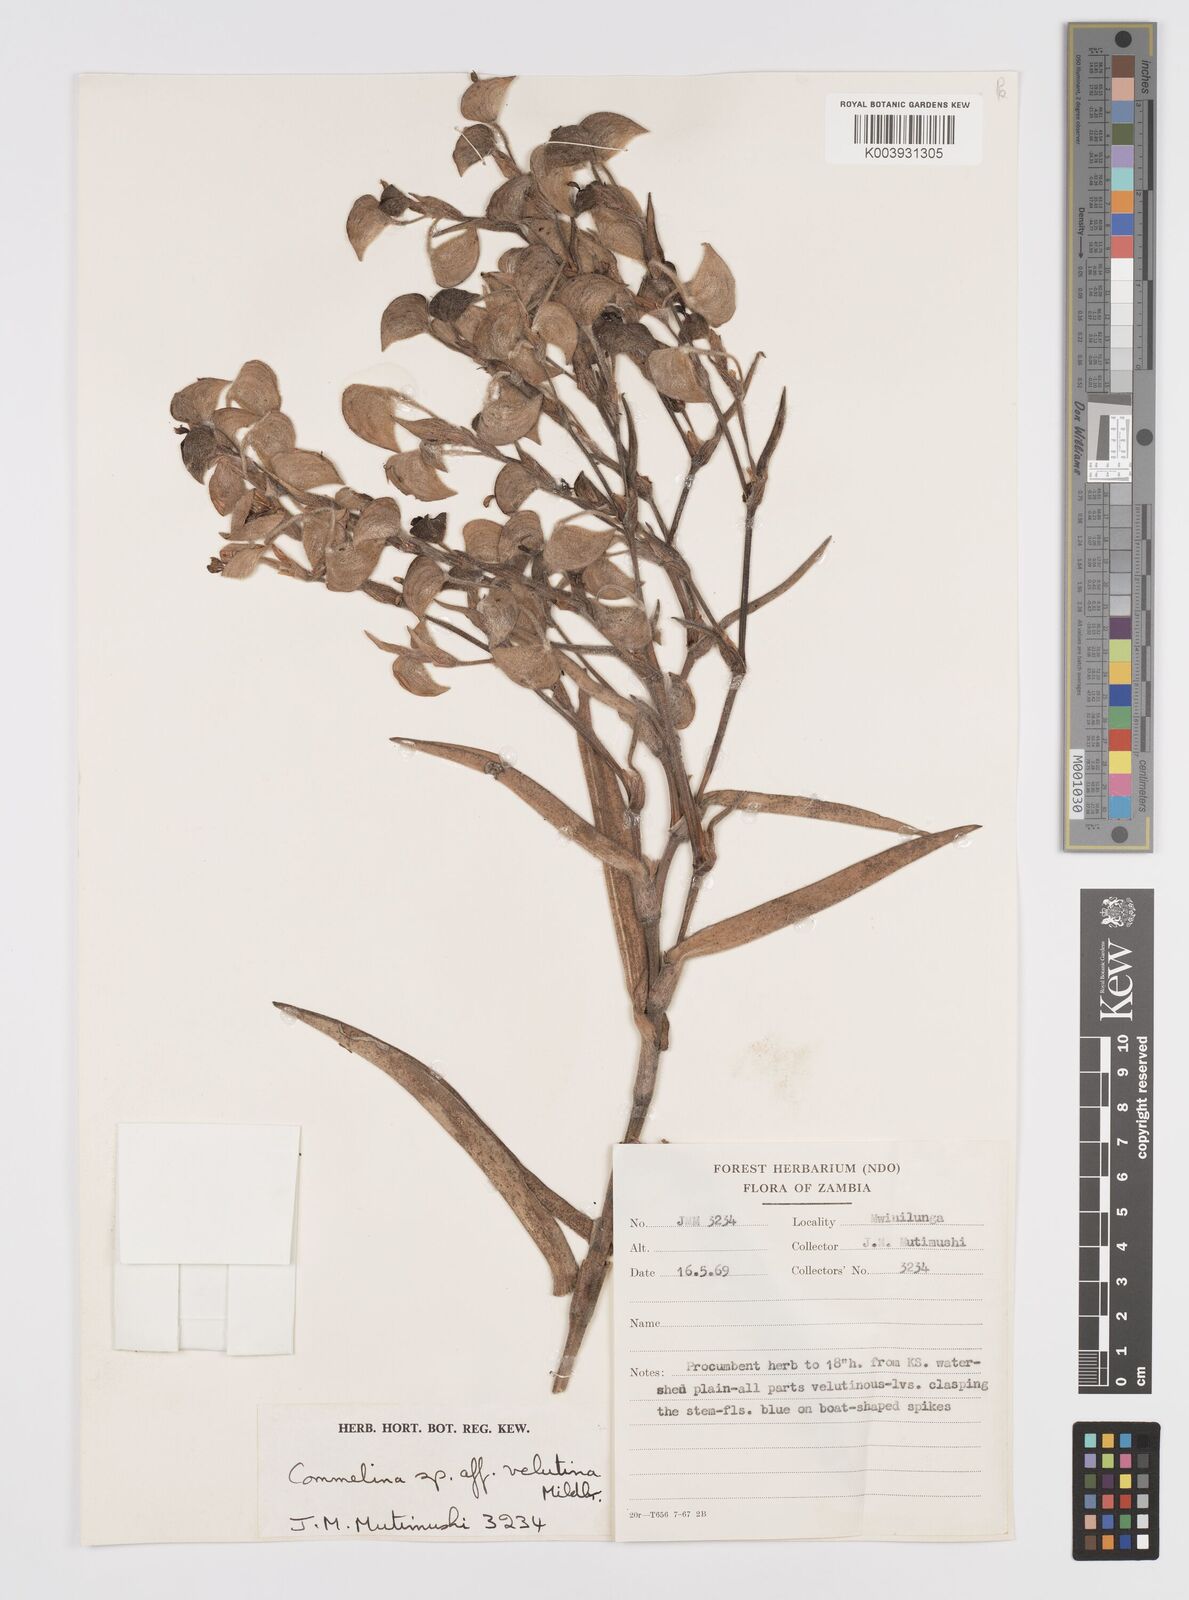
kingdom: Plantae
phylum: Tracheophyta
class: Liliopsida
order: Commelinales
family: Commelinaceae
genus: Commelina
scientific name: Commelina velutina
